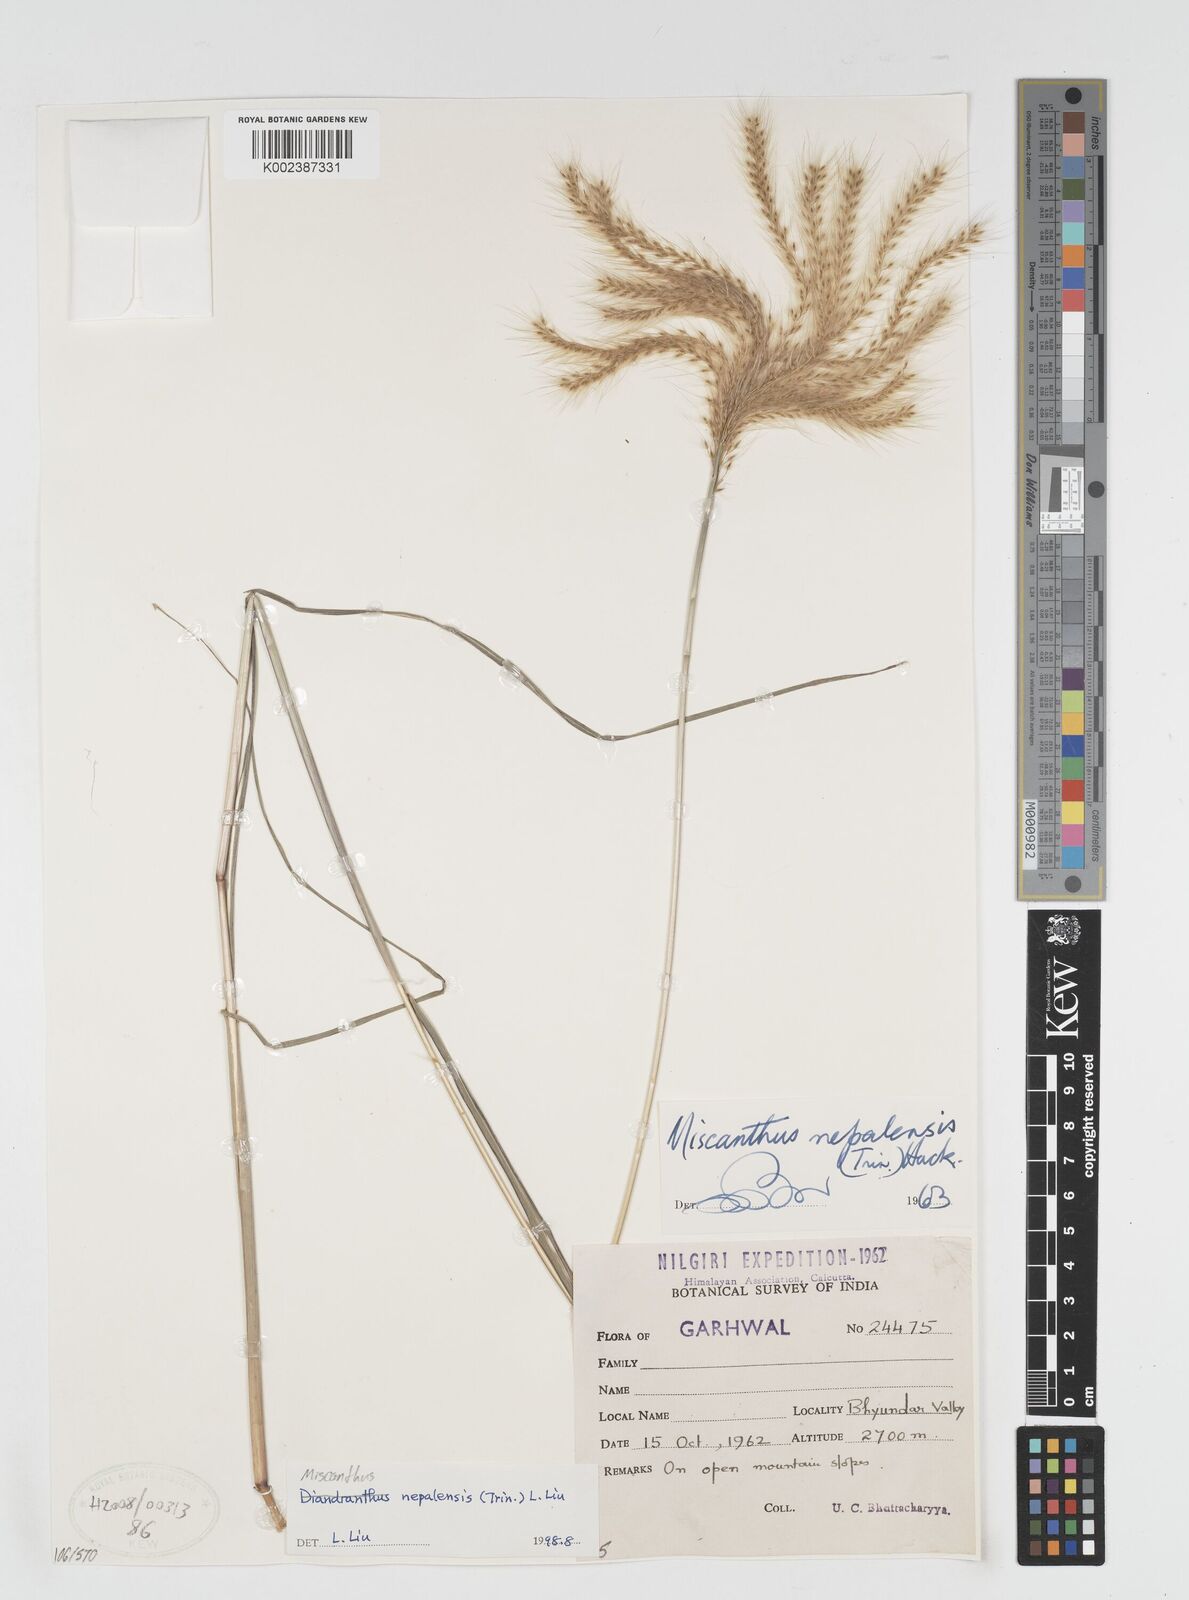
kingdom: Plantae
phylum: Tracheophyta
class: Liliopsida
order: Poales
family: Poaceae
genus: Miscanthus
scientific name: Miscanthus nepalensis
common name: Nepal silver grass
